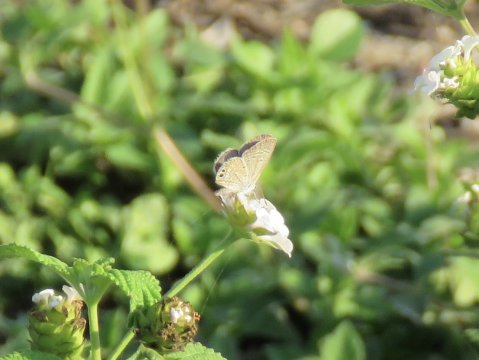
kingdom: Animalia
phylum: Arthropoda
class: Insecta
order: Lepidoptera
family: Lycaenidae
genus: Hemiargus
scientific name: Hemiargus ceraunus
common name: Ceraunus Blue
